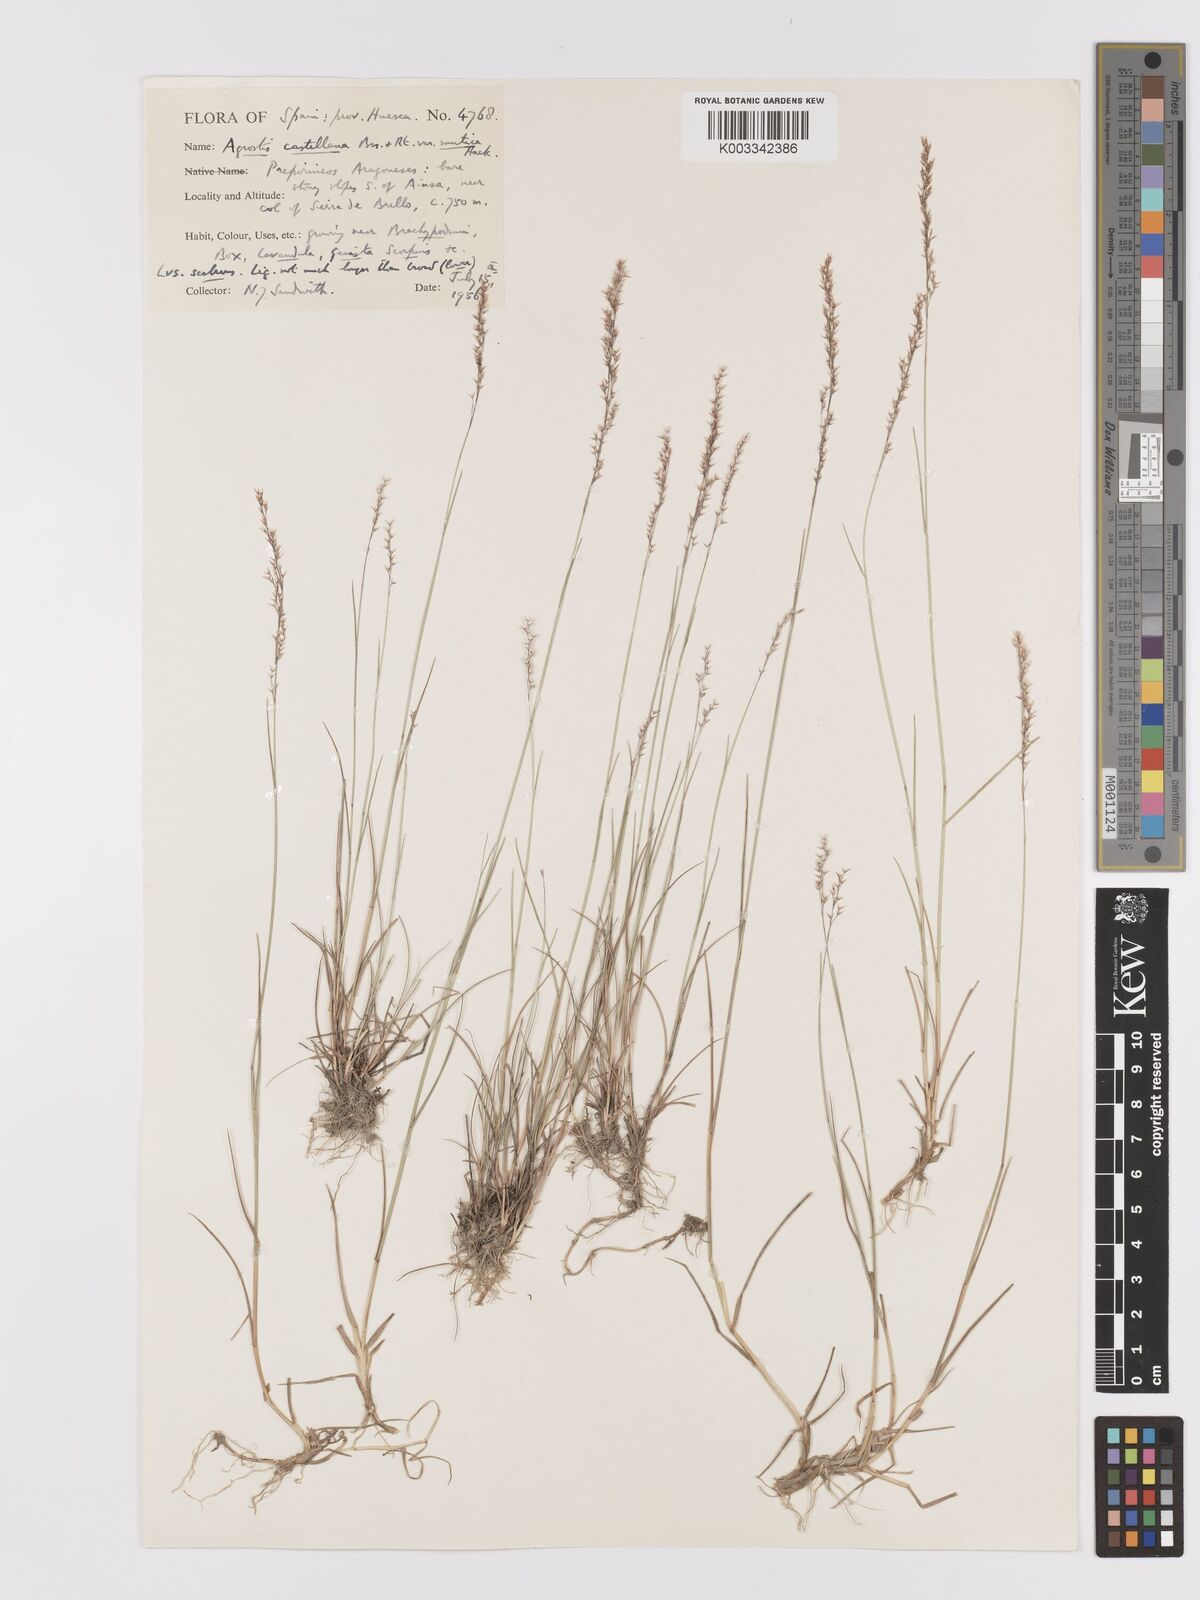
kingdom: Plantae
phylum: Tracheophyta
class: Liliopsida
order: Poales
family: Poaceae
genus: Agrostis
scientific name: Agrostis castellana
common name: Highland bent
